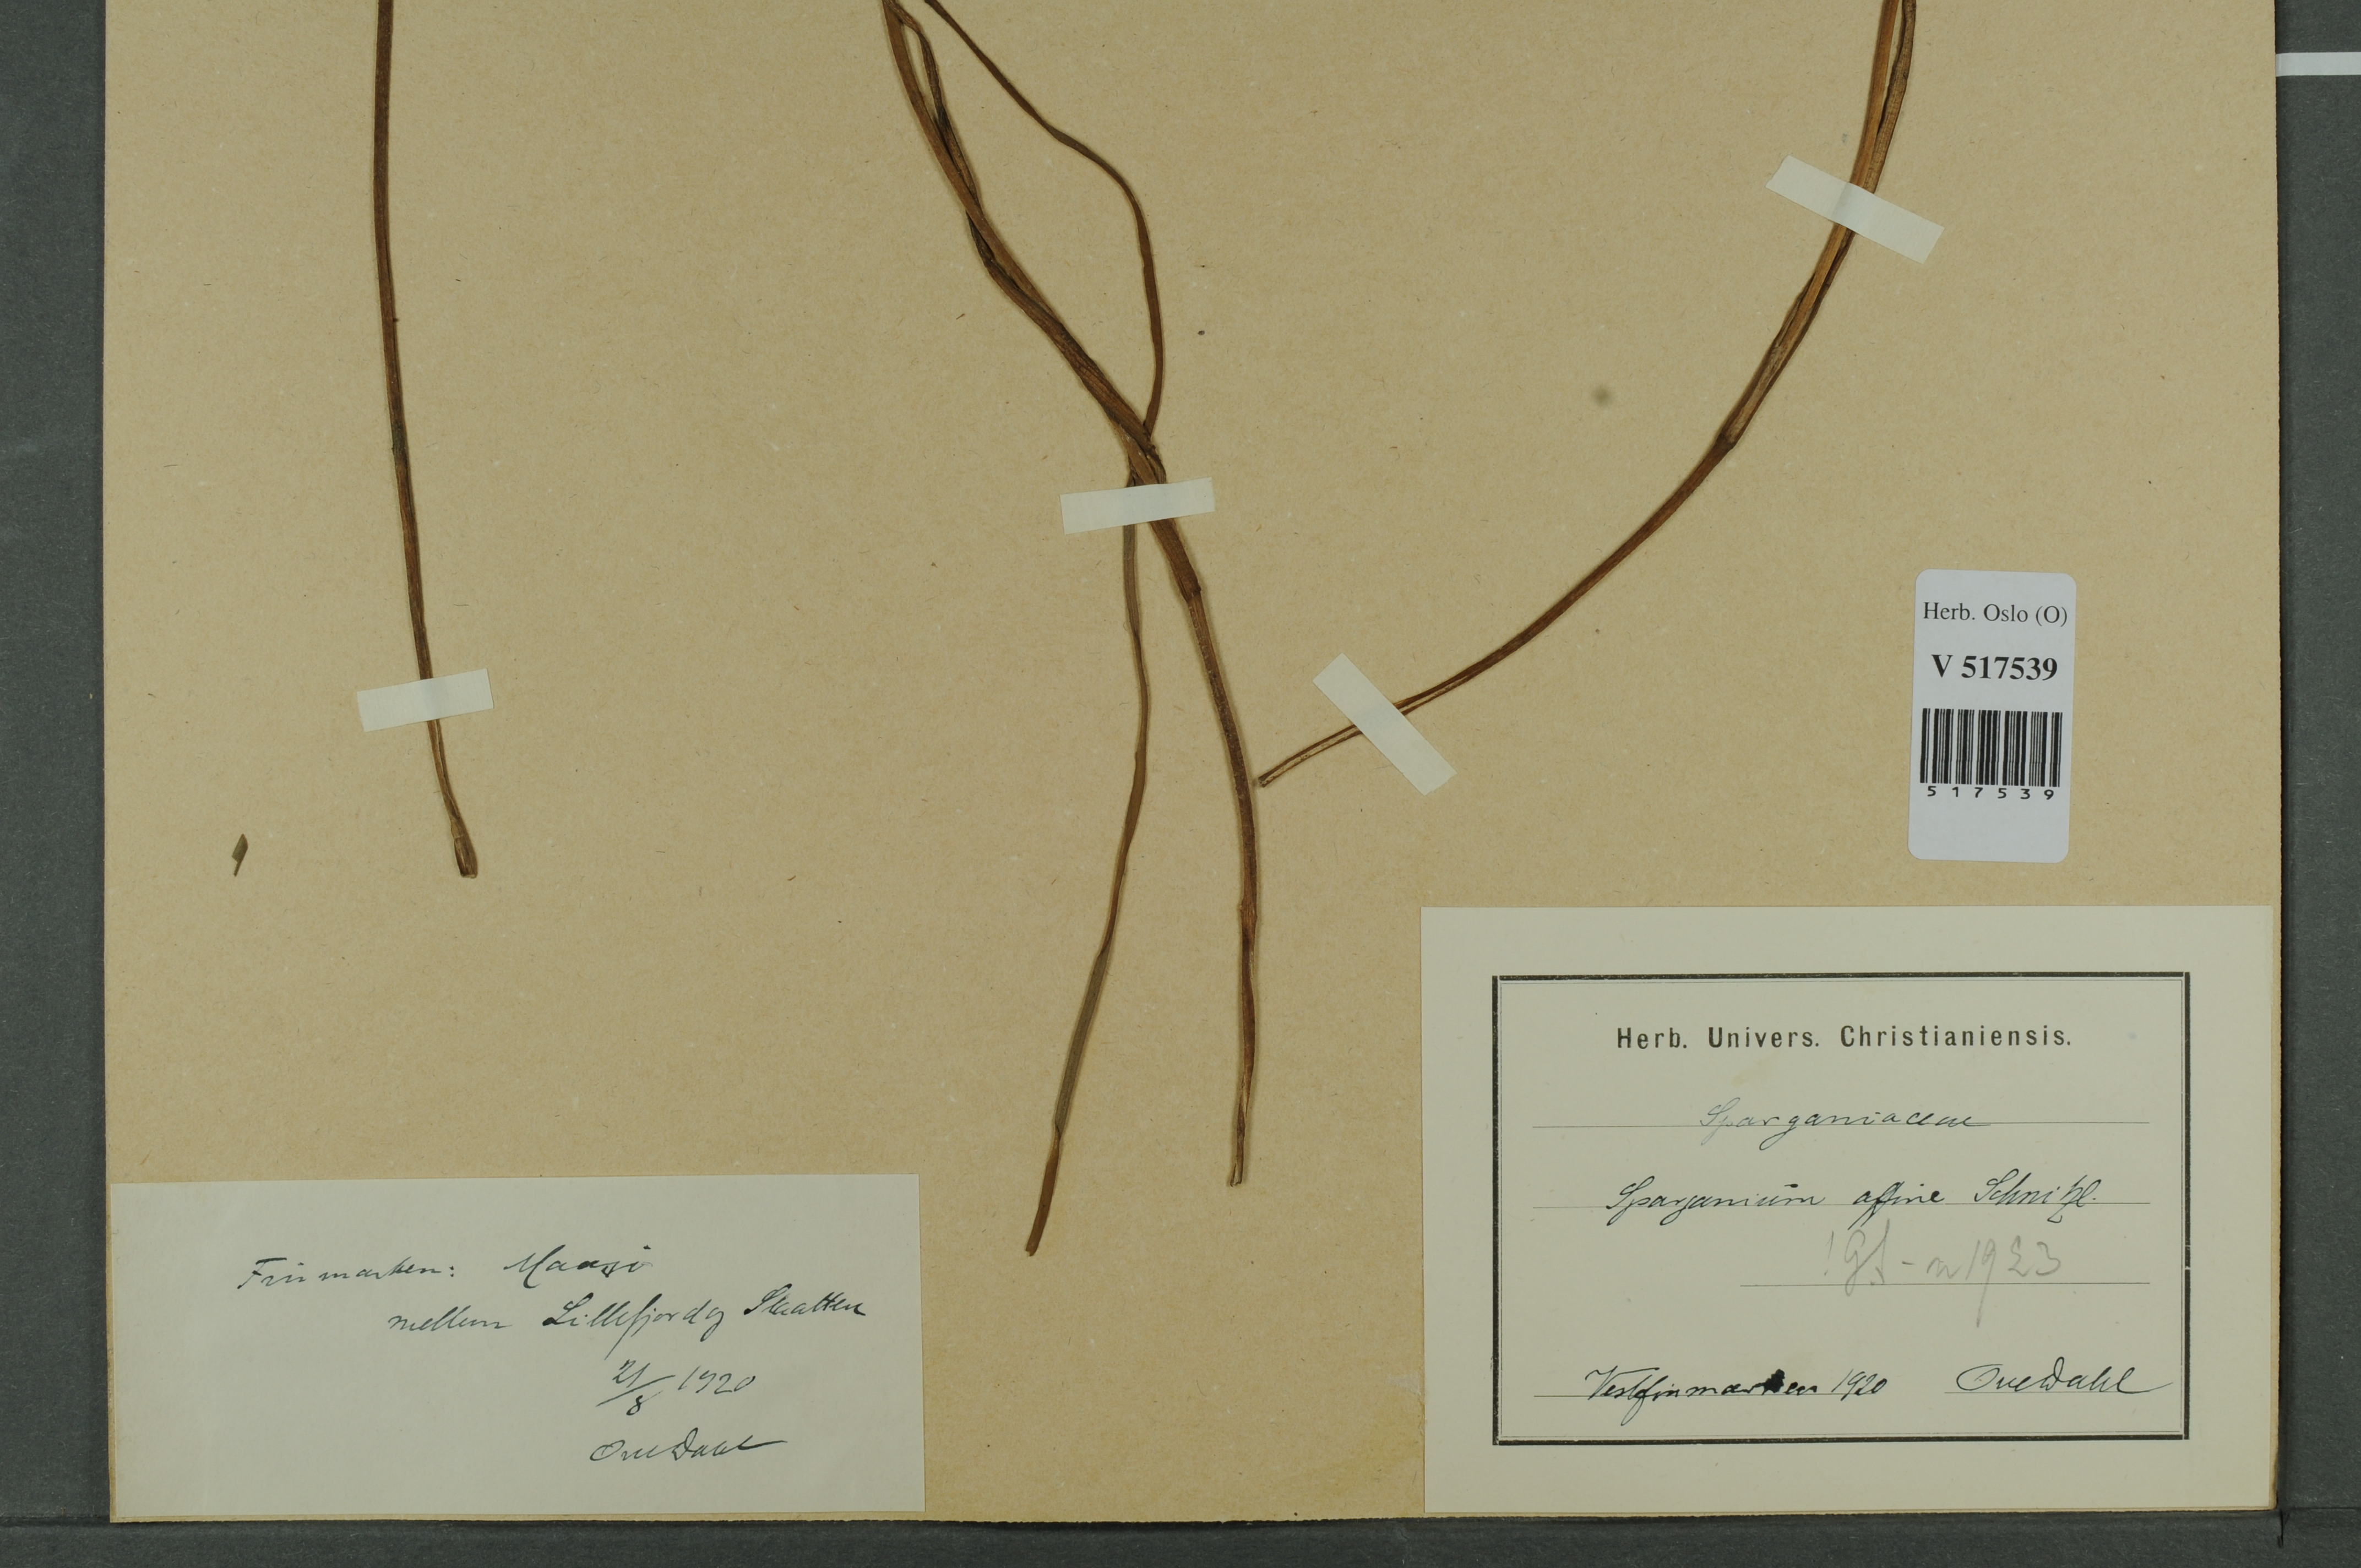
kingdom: Plantae
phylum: Tracheophyta
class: Liliopsida
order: Poales
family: Typhaceae
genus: Sparganium
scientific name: Sparganium angustifolium
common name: Floating bur-reed
